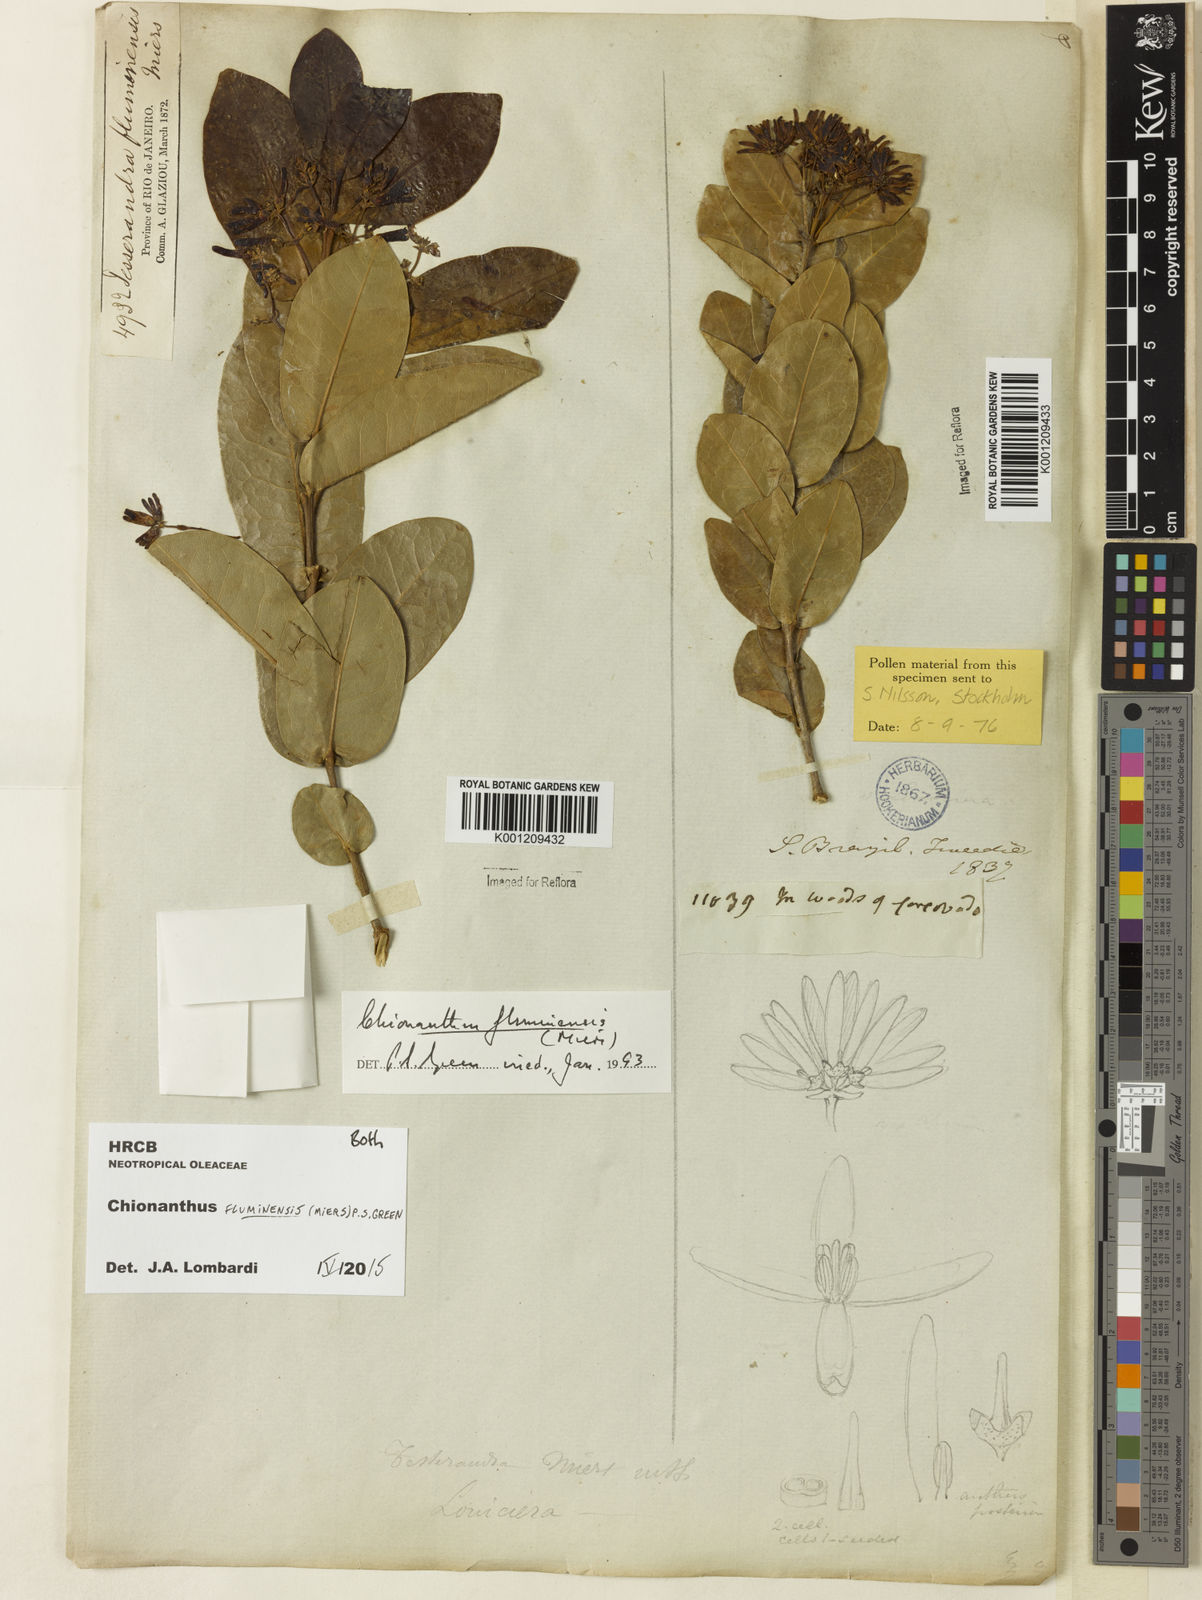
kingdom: Plantae
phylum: Tracheophyta
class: Magnoliopsida
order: Lamiales
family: Oleaceae
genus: Chionanthus
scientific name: Chionanthus fluminensis
